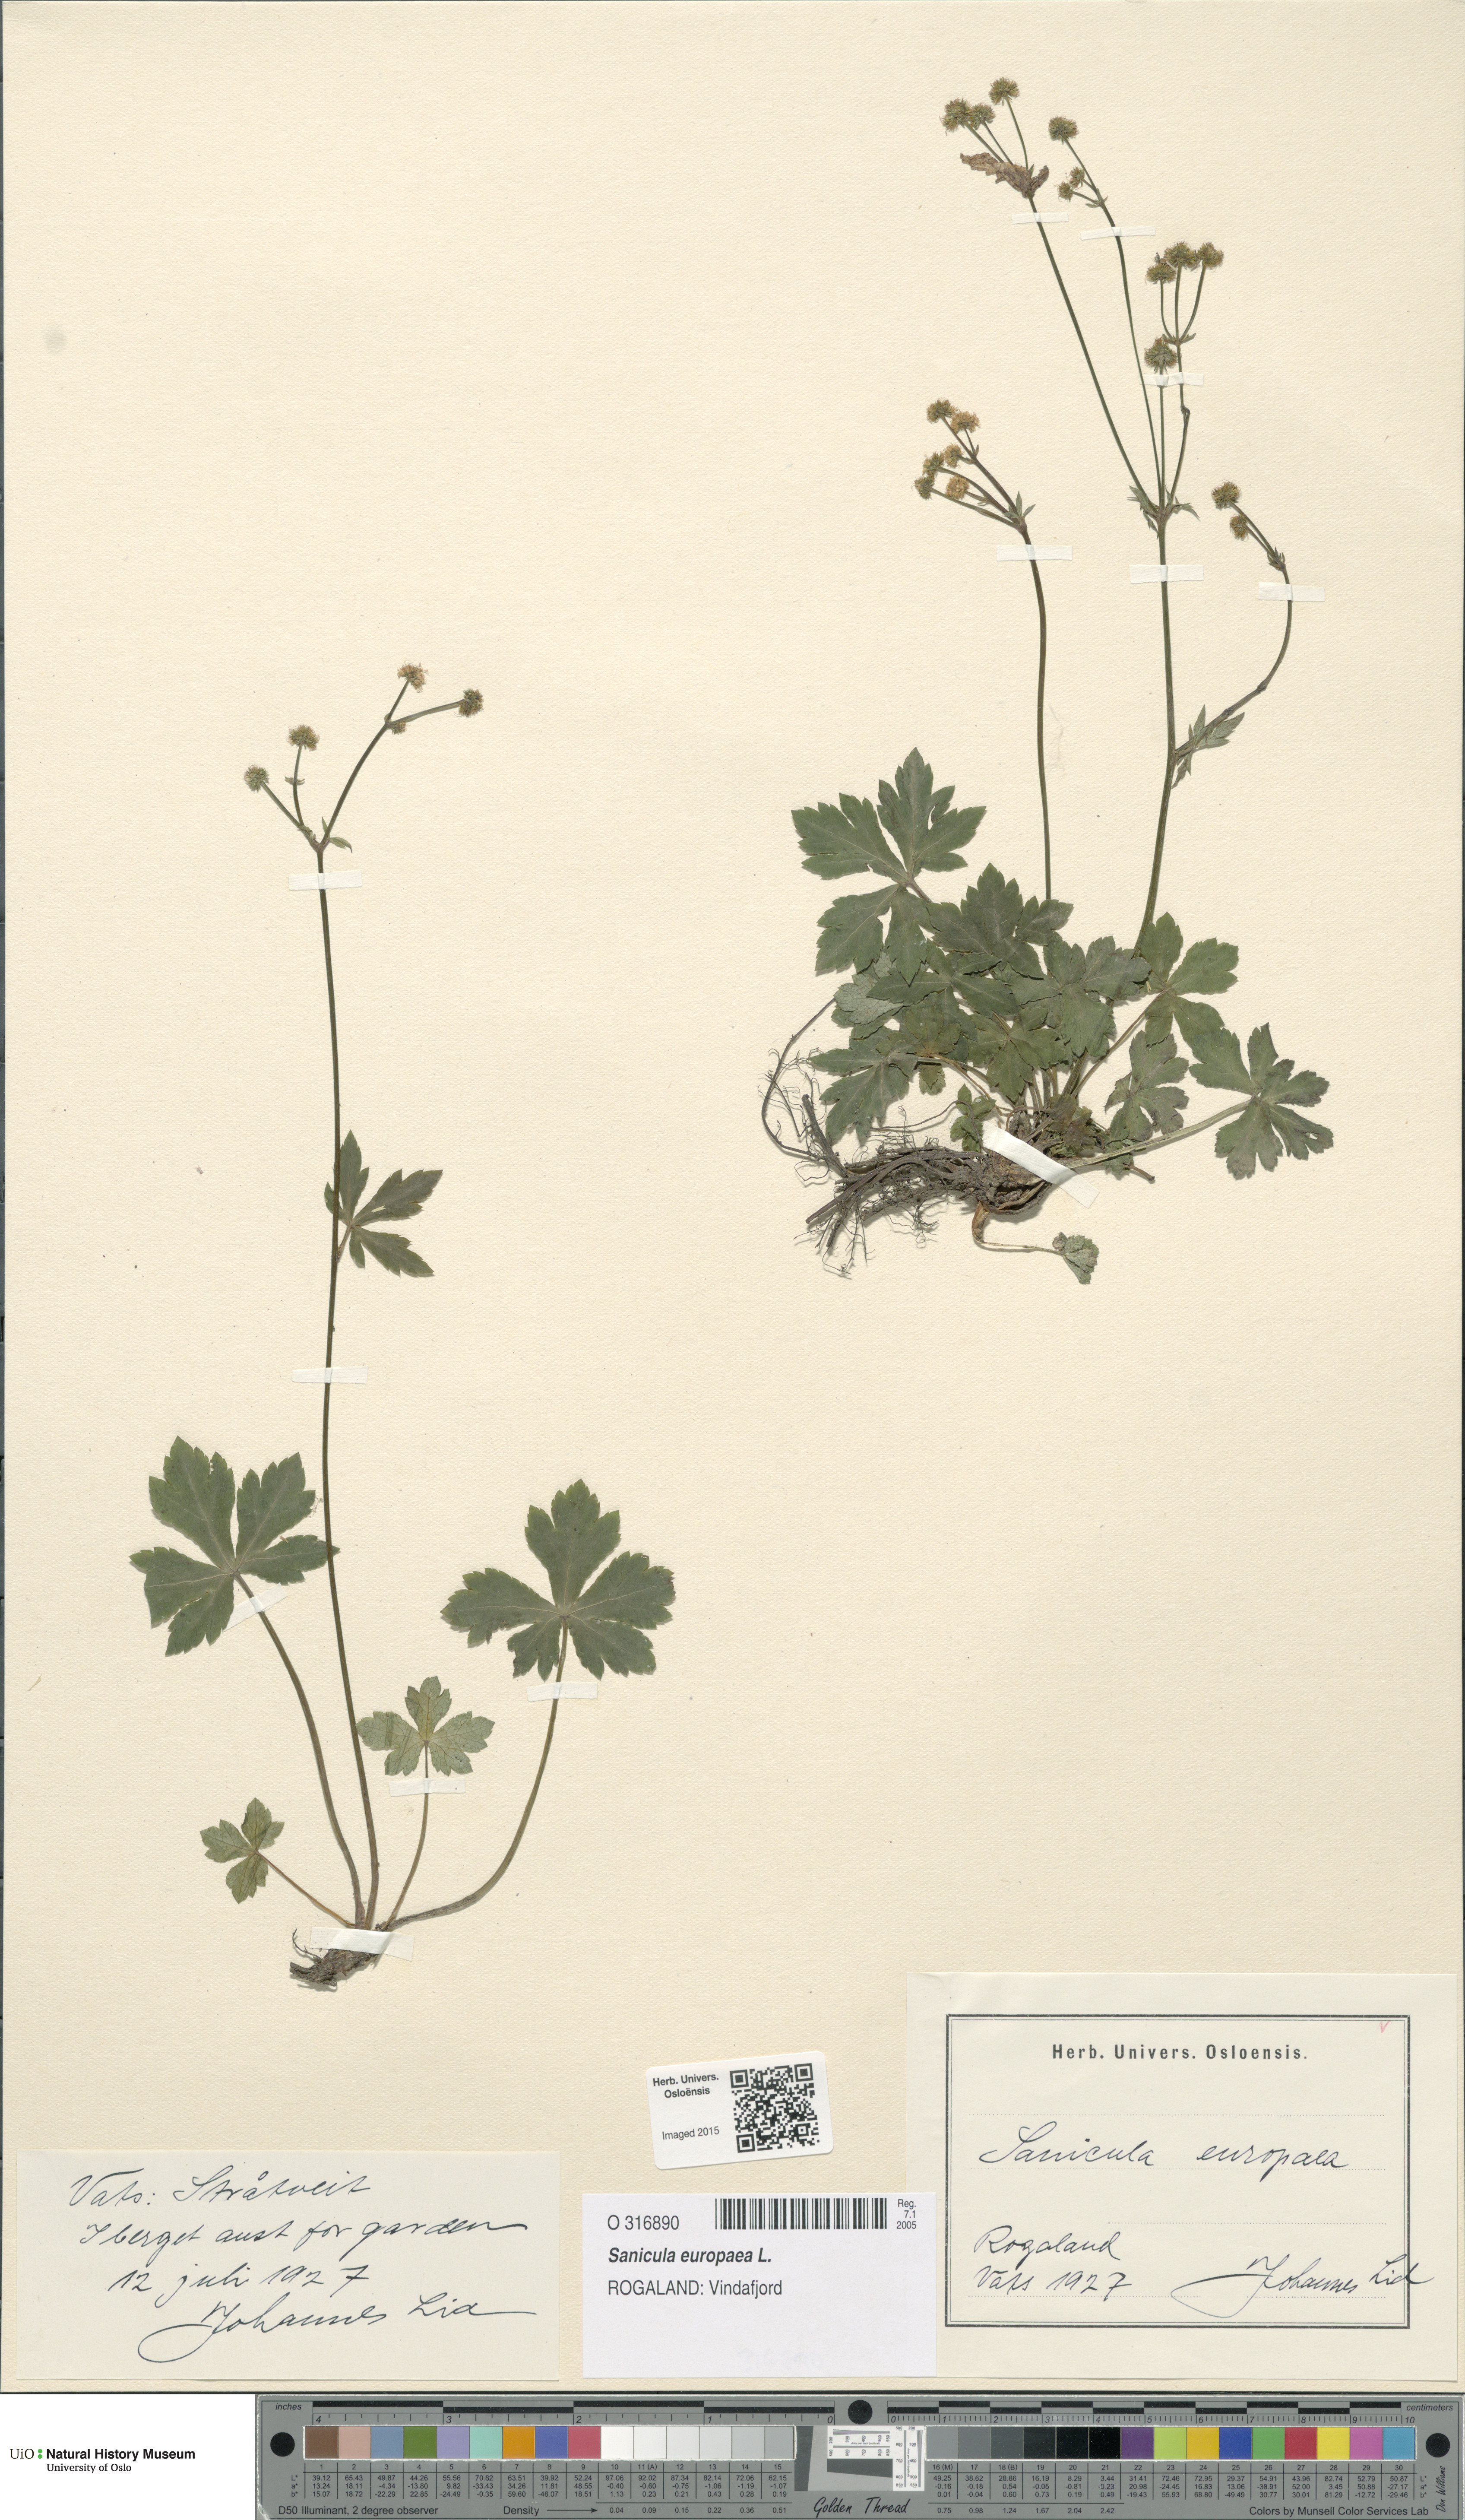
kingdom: Plantae
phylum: Tracheophyta
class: Magnoliopsida
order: Apiales
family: Apiaceae
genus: Sanicula
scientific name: Sanicula europaea
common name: Sanicle
